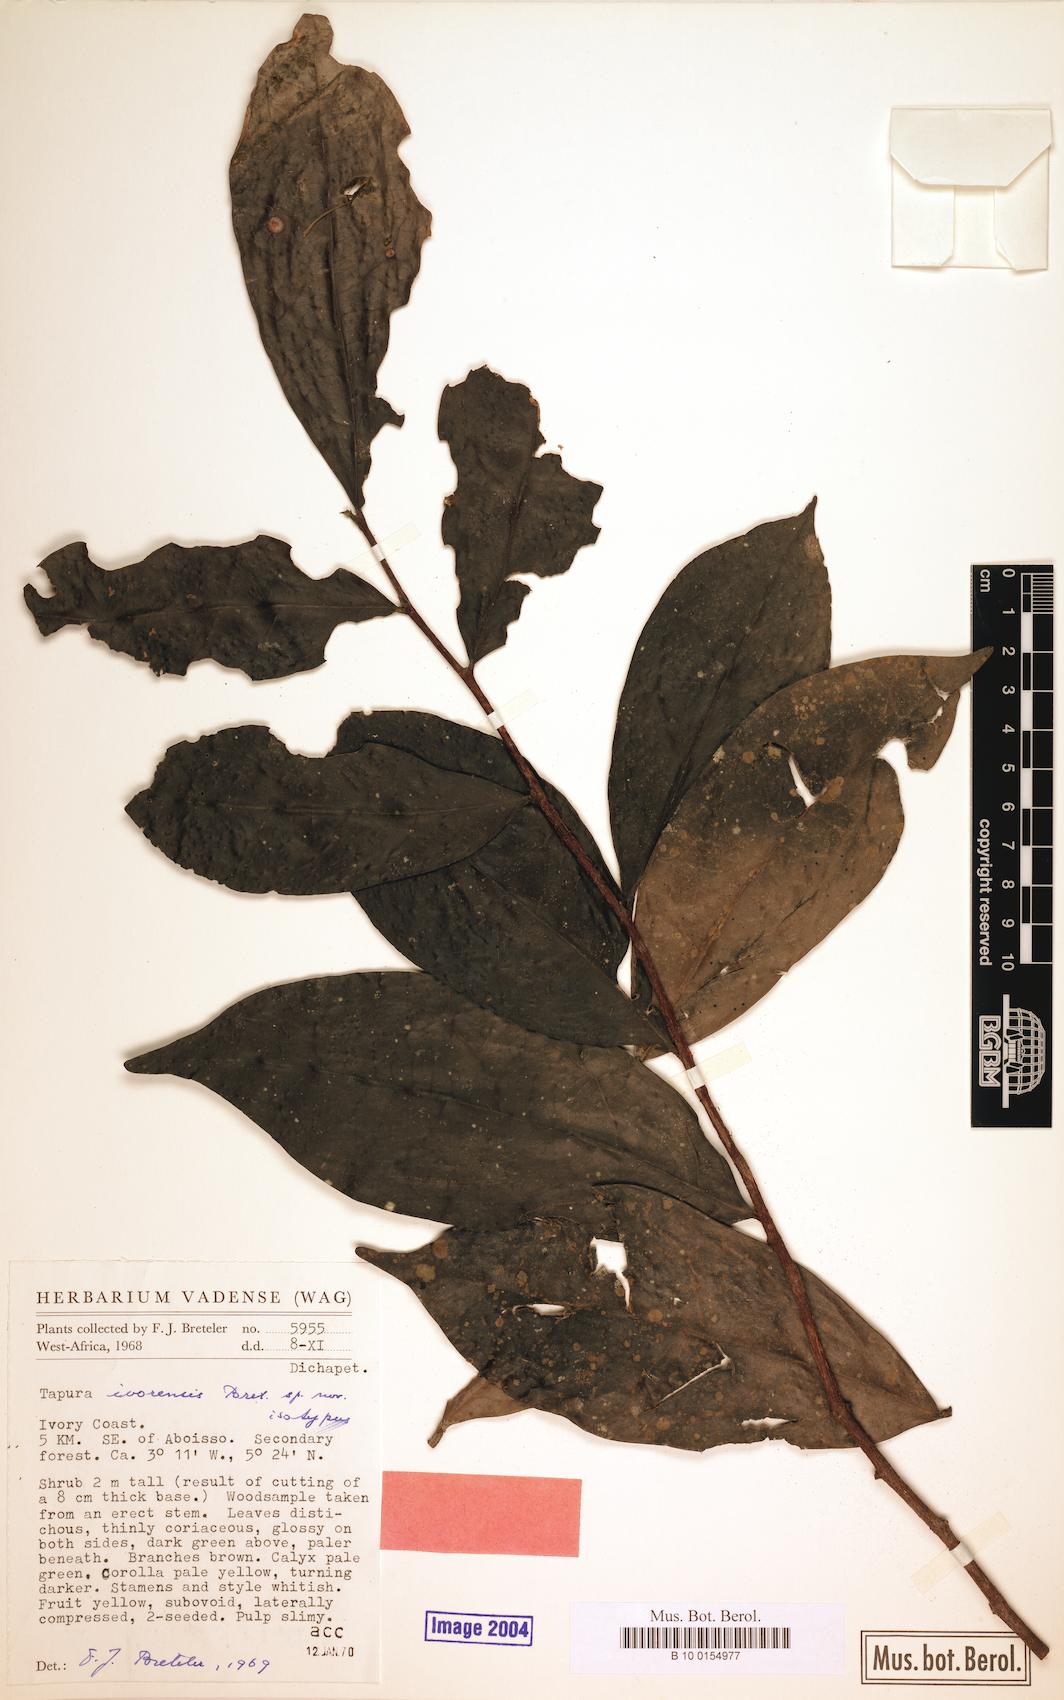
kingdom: Plantae
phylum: Tracheophyta
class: Magnoliopsida
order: Malpighiales
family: Dichapetalaceae
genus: Tapura
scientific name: Tapura ivorensis
